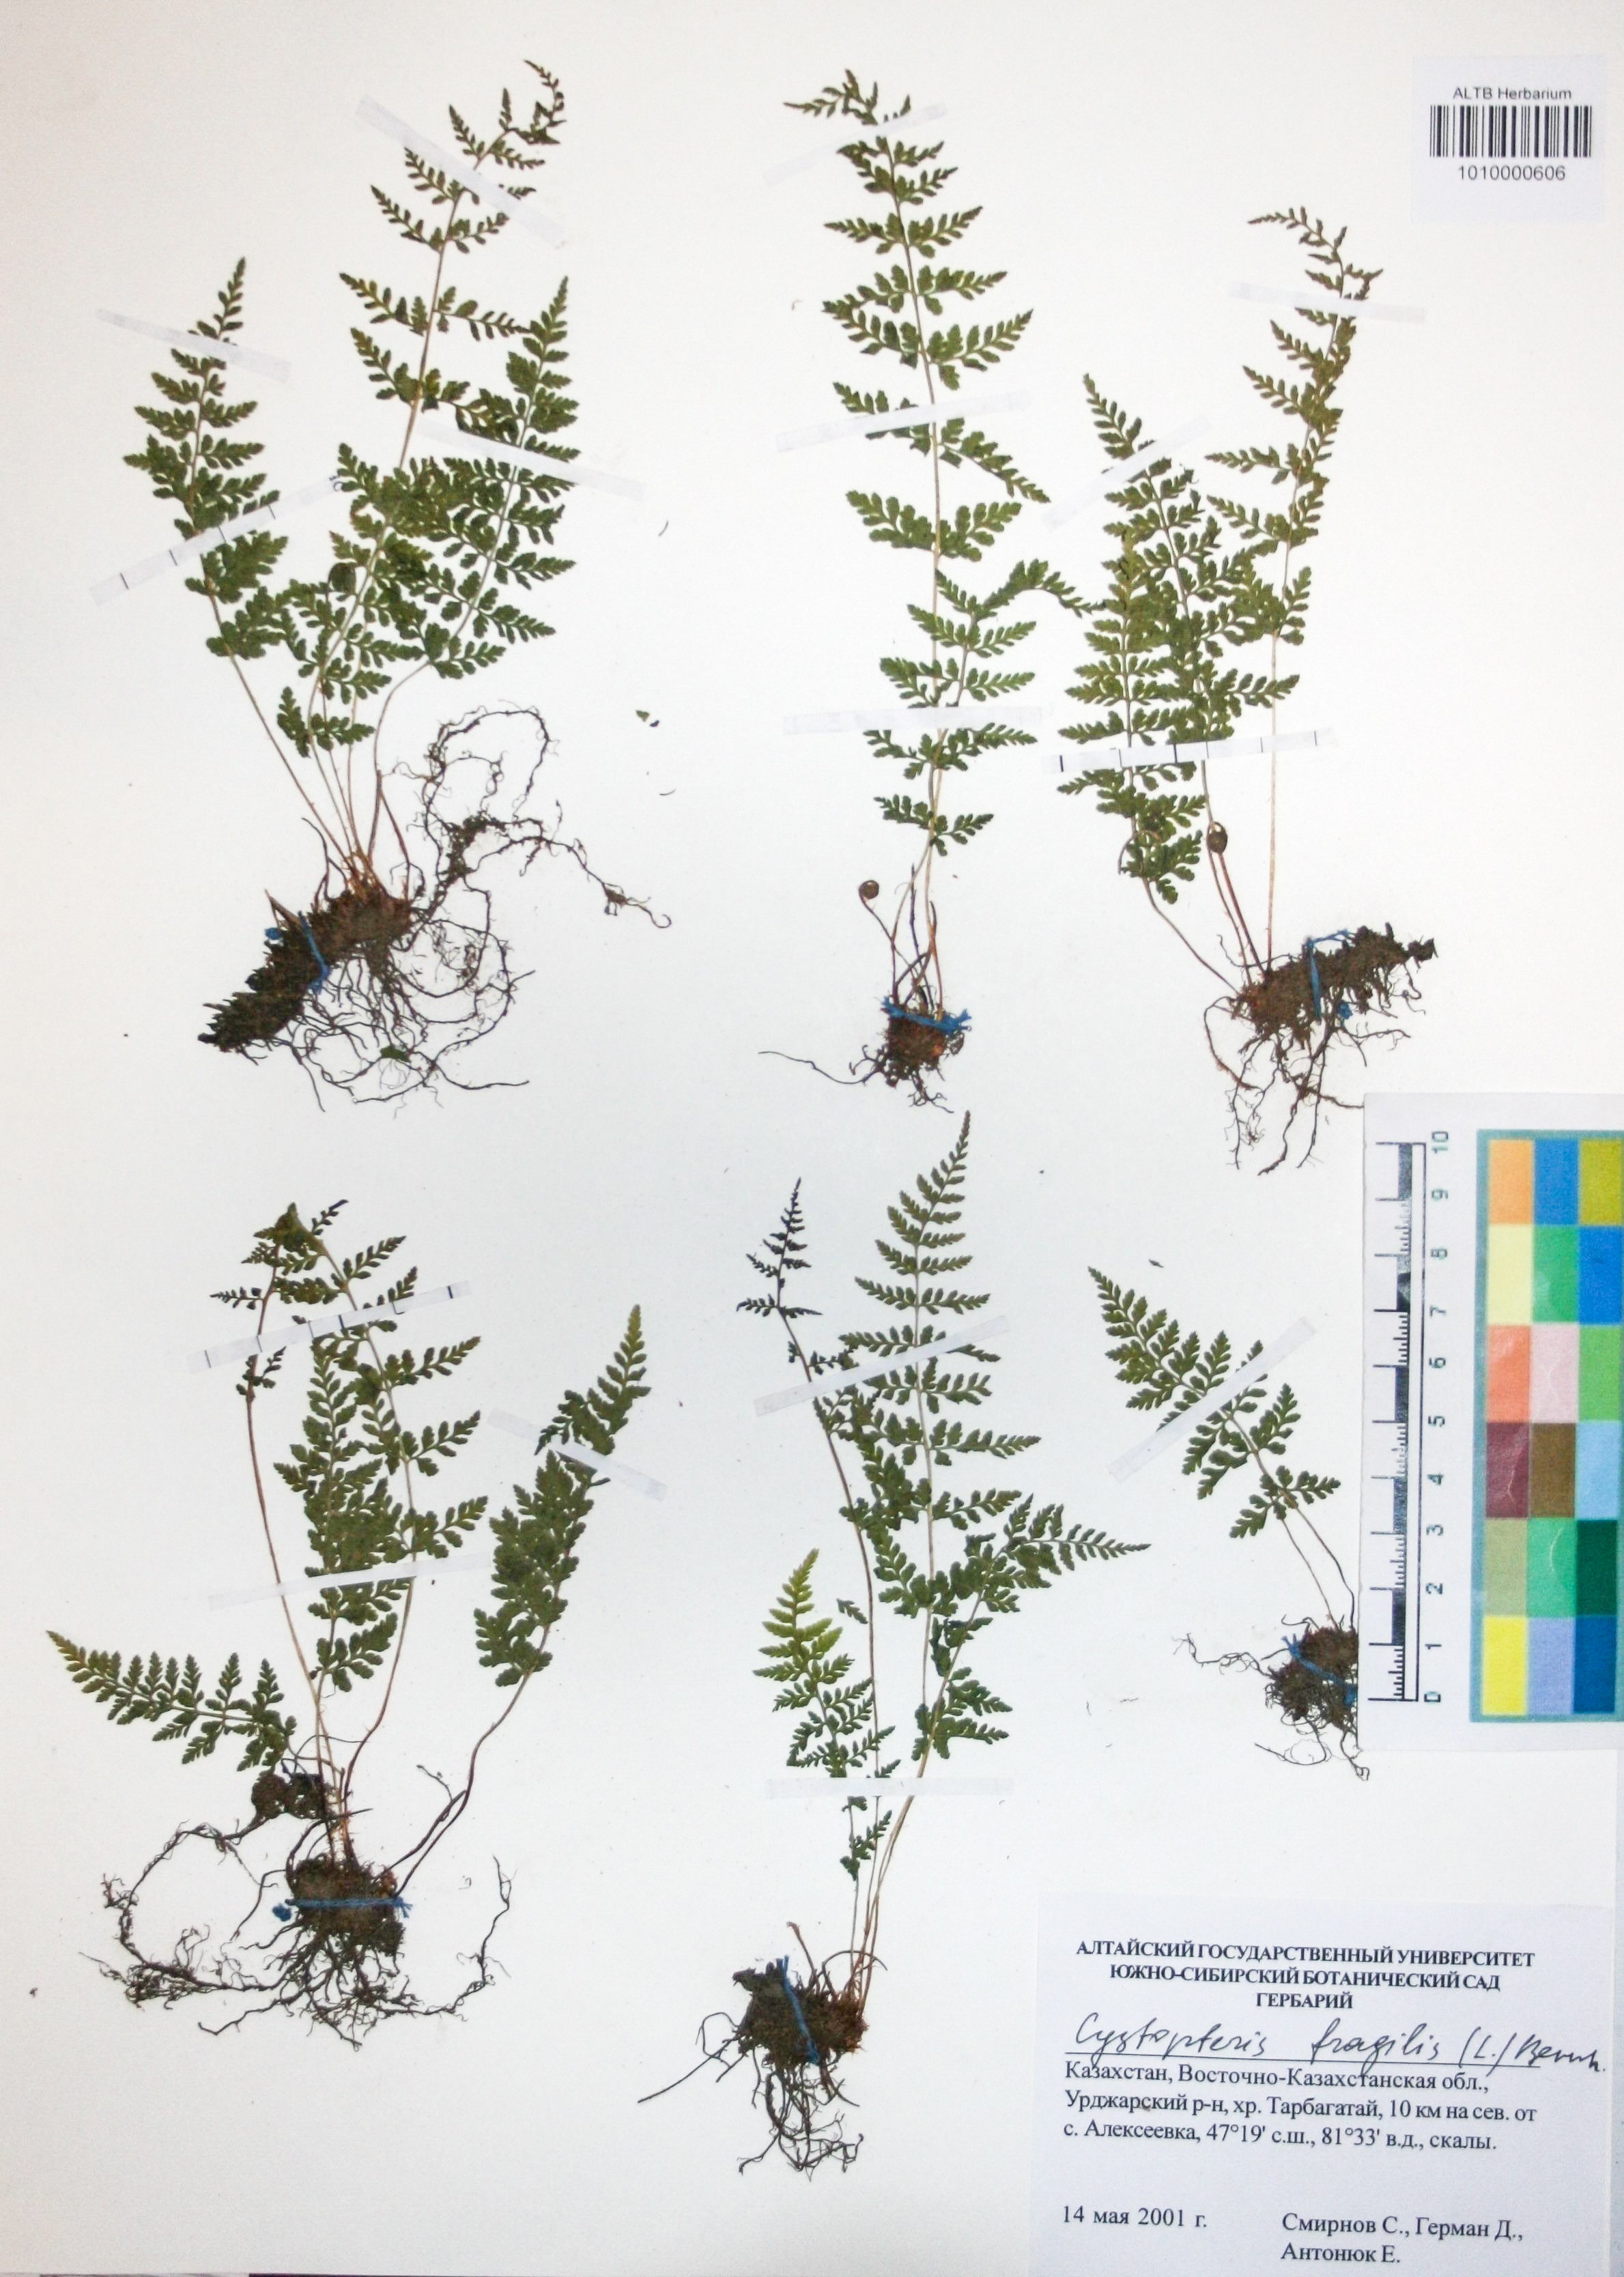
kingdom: Plantae
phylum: Tracheophyta
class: Polypodiopsida
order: Polypodiales
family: Cystopteridaceae
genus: Cystopteris
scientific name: Cystopteris fragilis
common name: Brittle bladder fern
